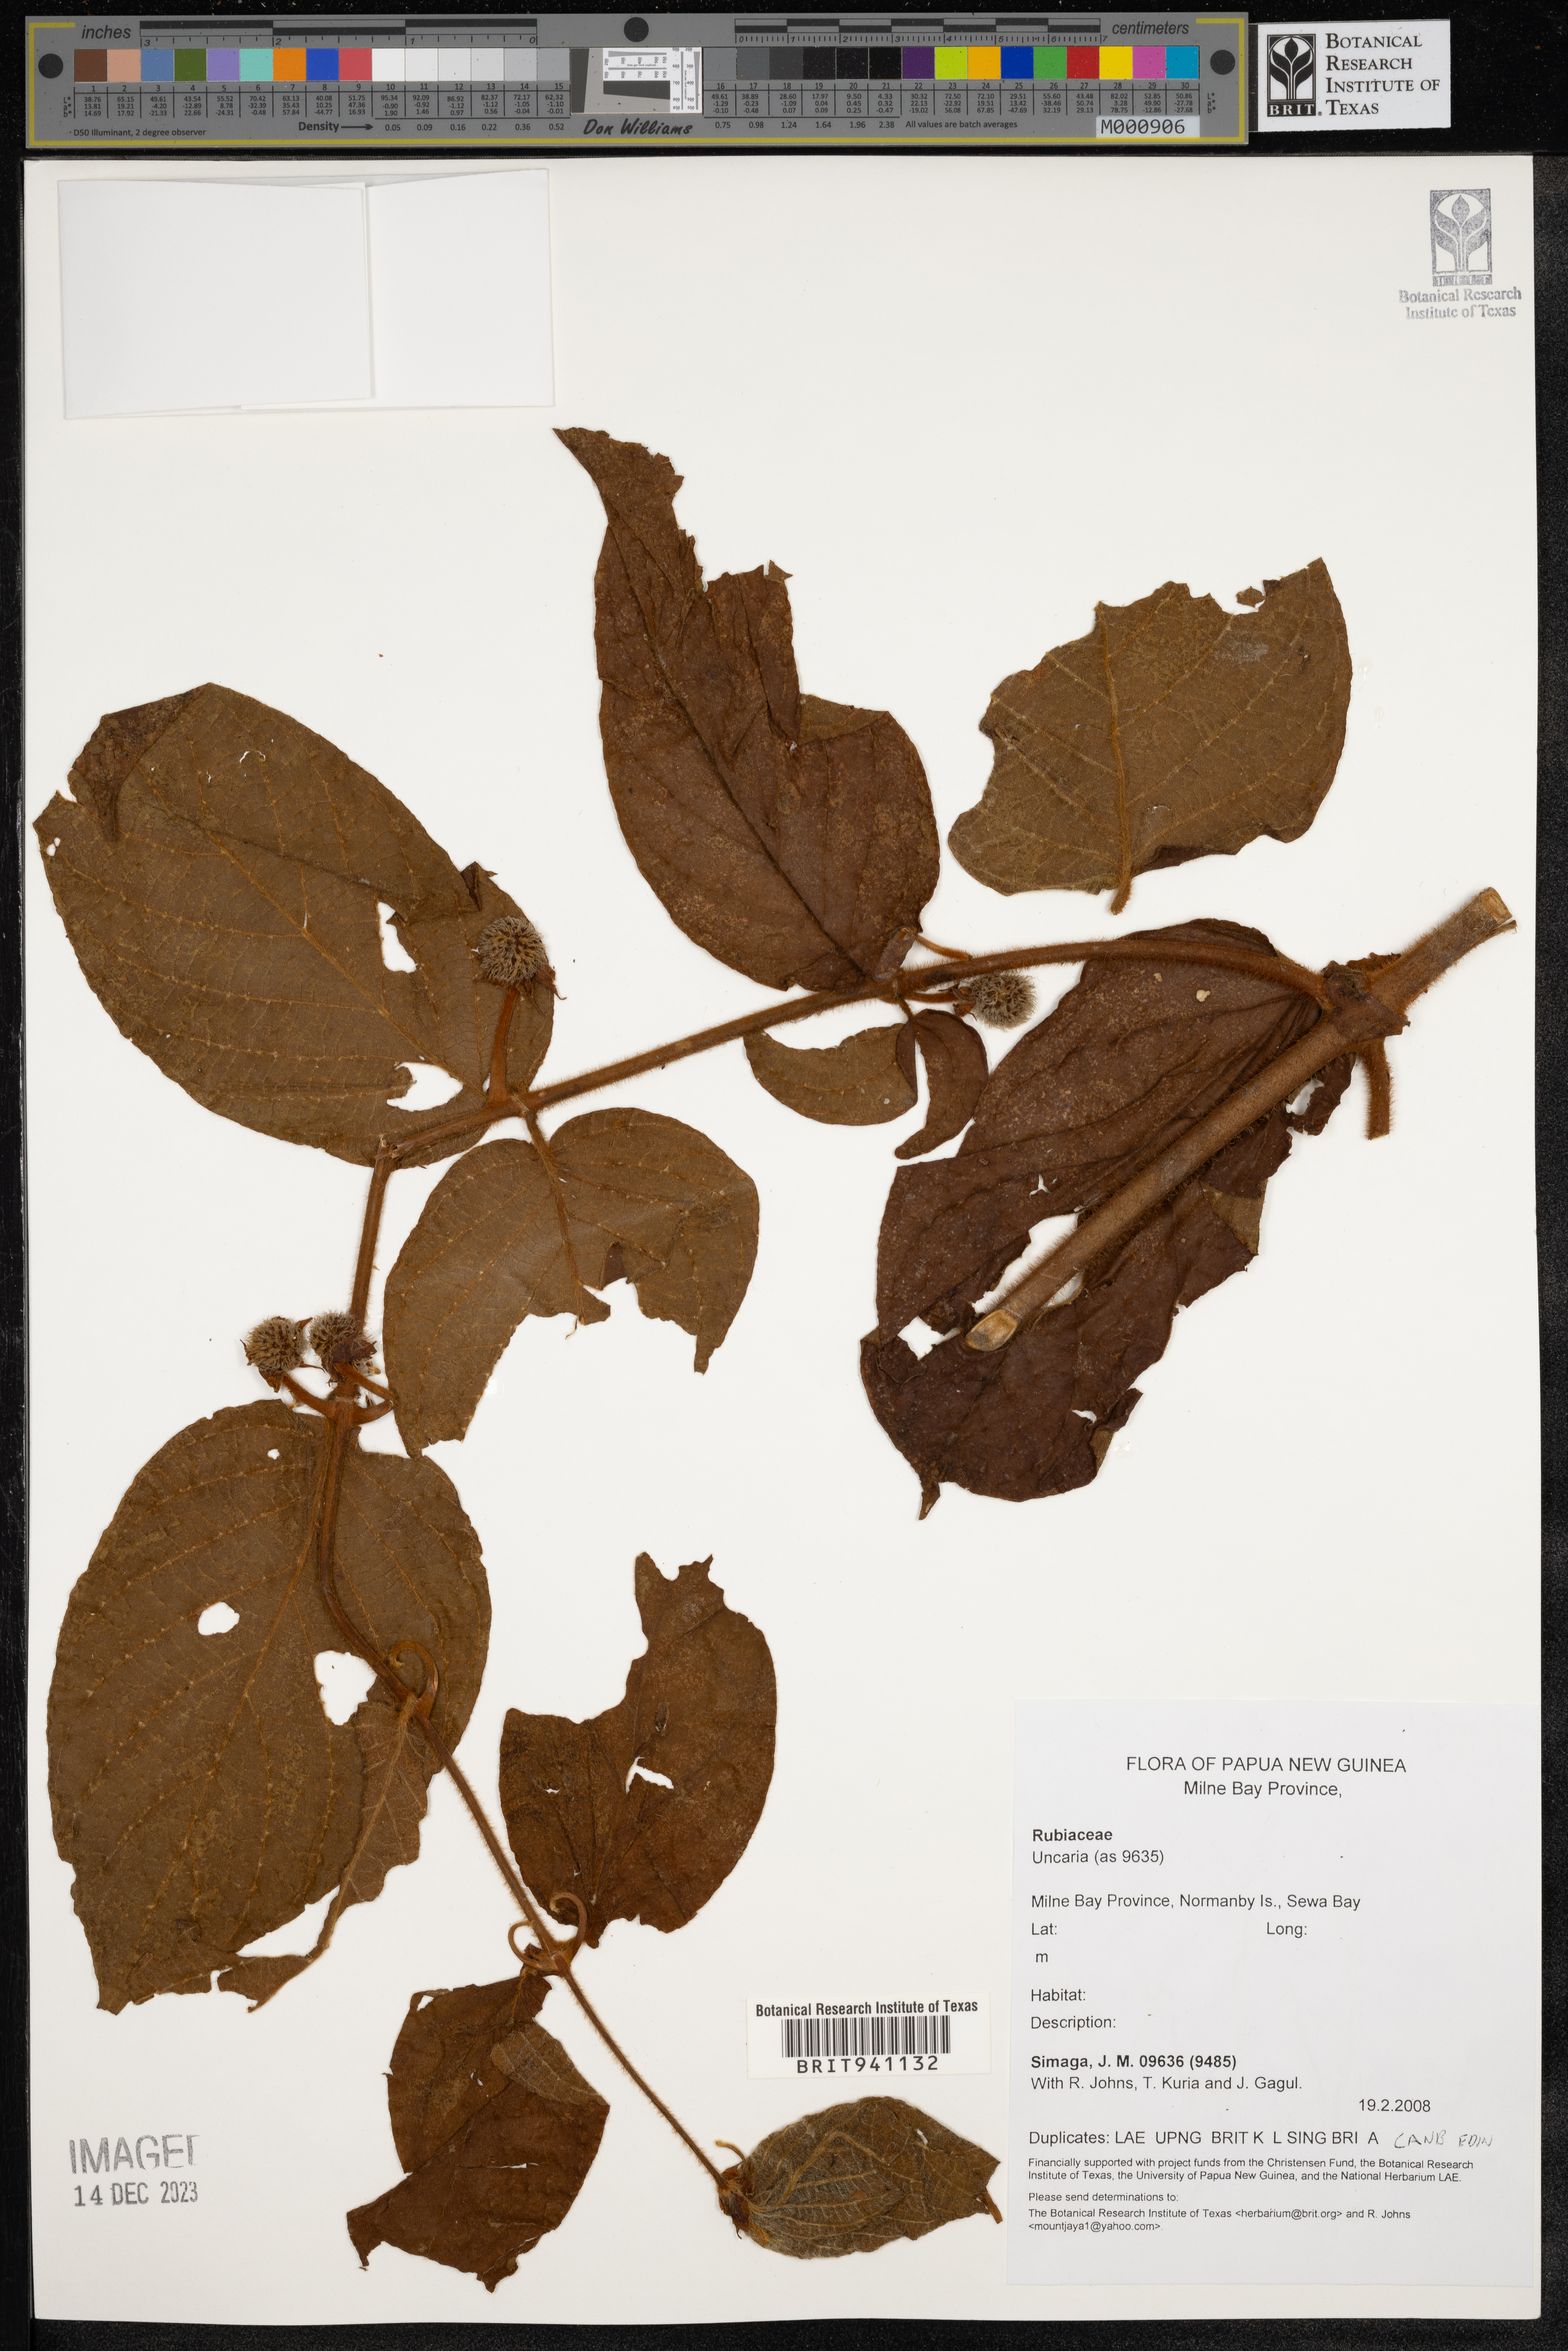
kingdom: Plantae
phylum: Tracheophyta
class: Magnoliopsida
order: Gentianales
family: Rubiaceae
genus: Uncaria
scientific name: Uncaria
